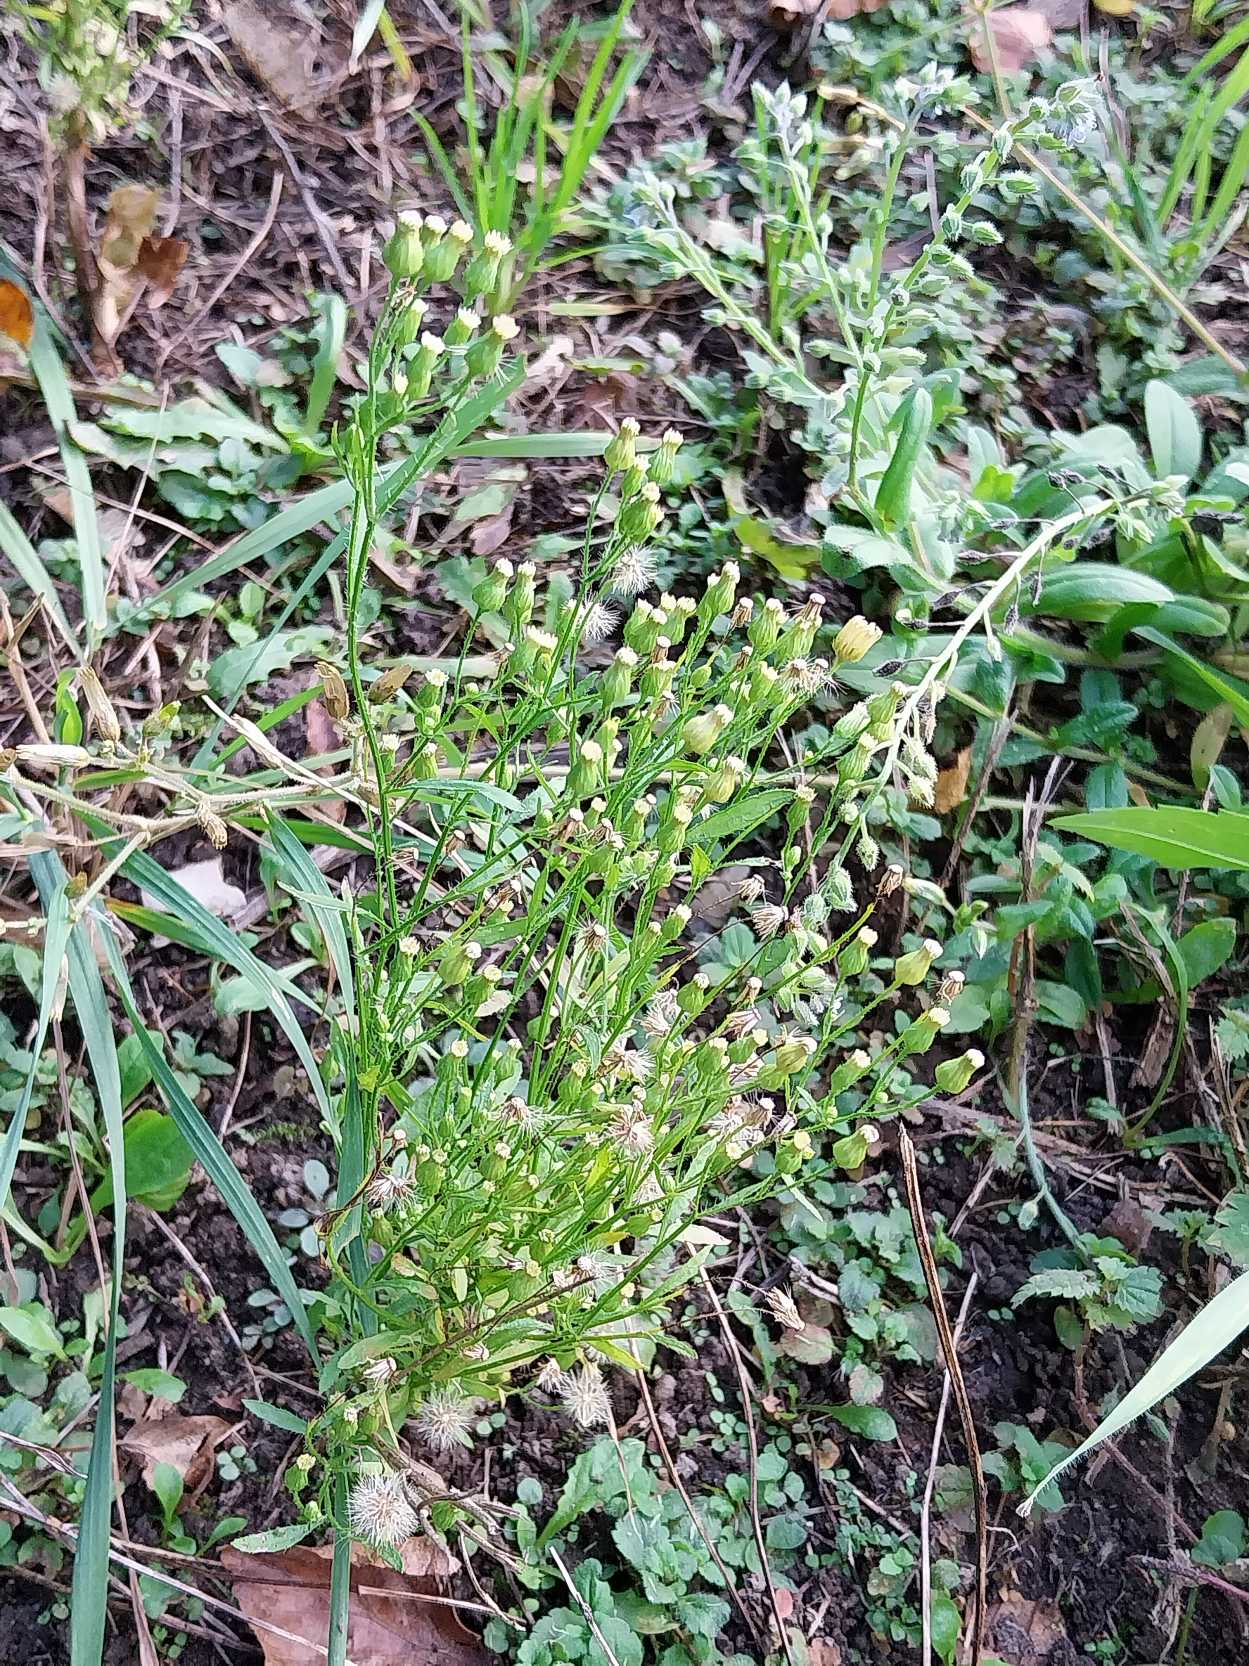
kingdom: Plantae
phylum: Tracheophyta
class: Magnoliopsida
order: Asterales
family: Asteraceae
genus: Erigeron
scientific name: Erigeron canadensis
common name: Kanadisk bakkestjerne
